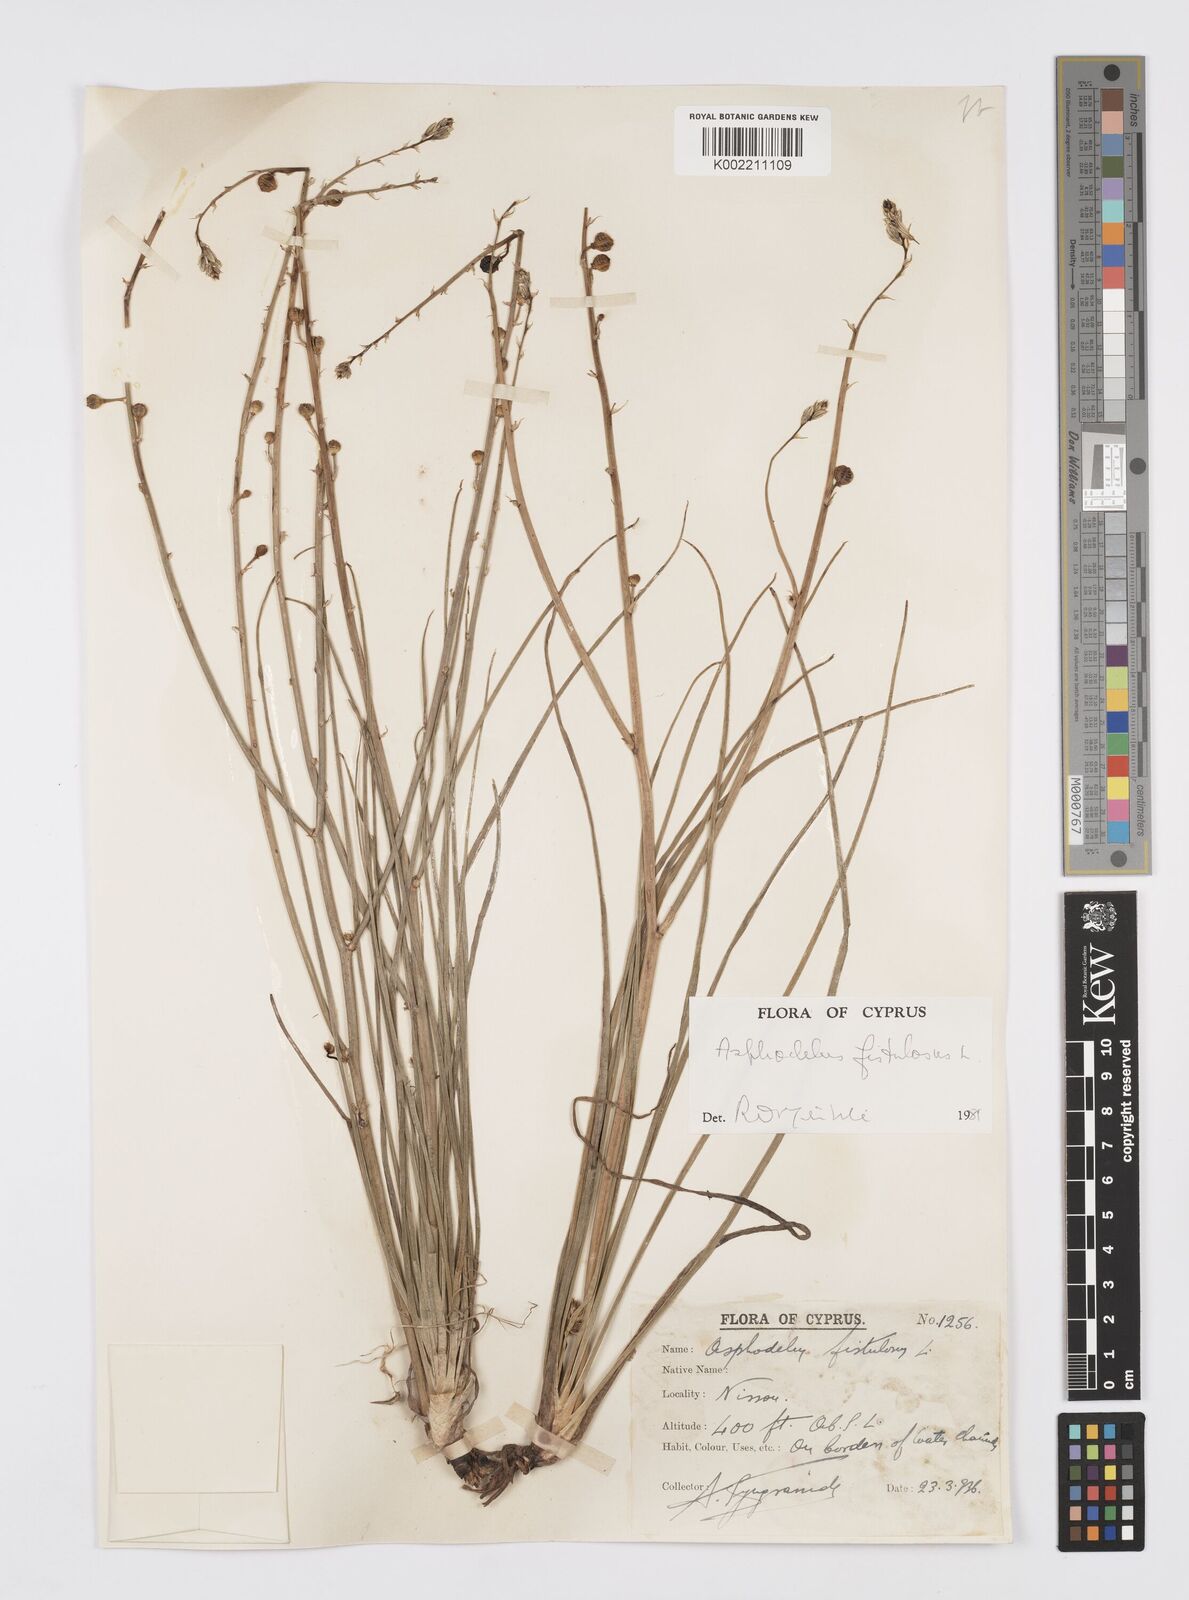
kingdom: Plantae
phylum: Tracheophyta
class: Liliopsida
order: Asparagales
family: Asphodelaceae
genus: Asphodelus
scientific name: Asphodelus fistulosus
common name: Onionweed
